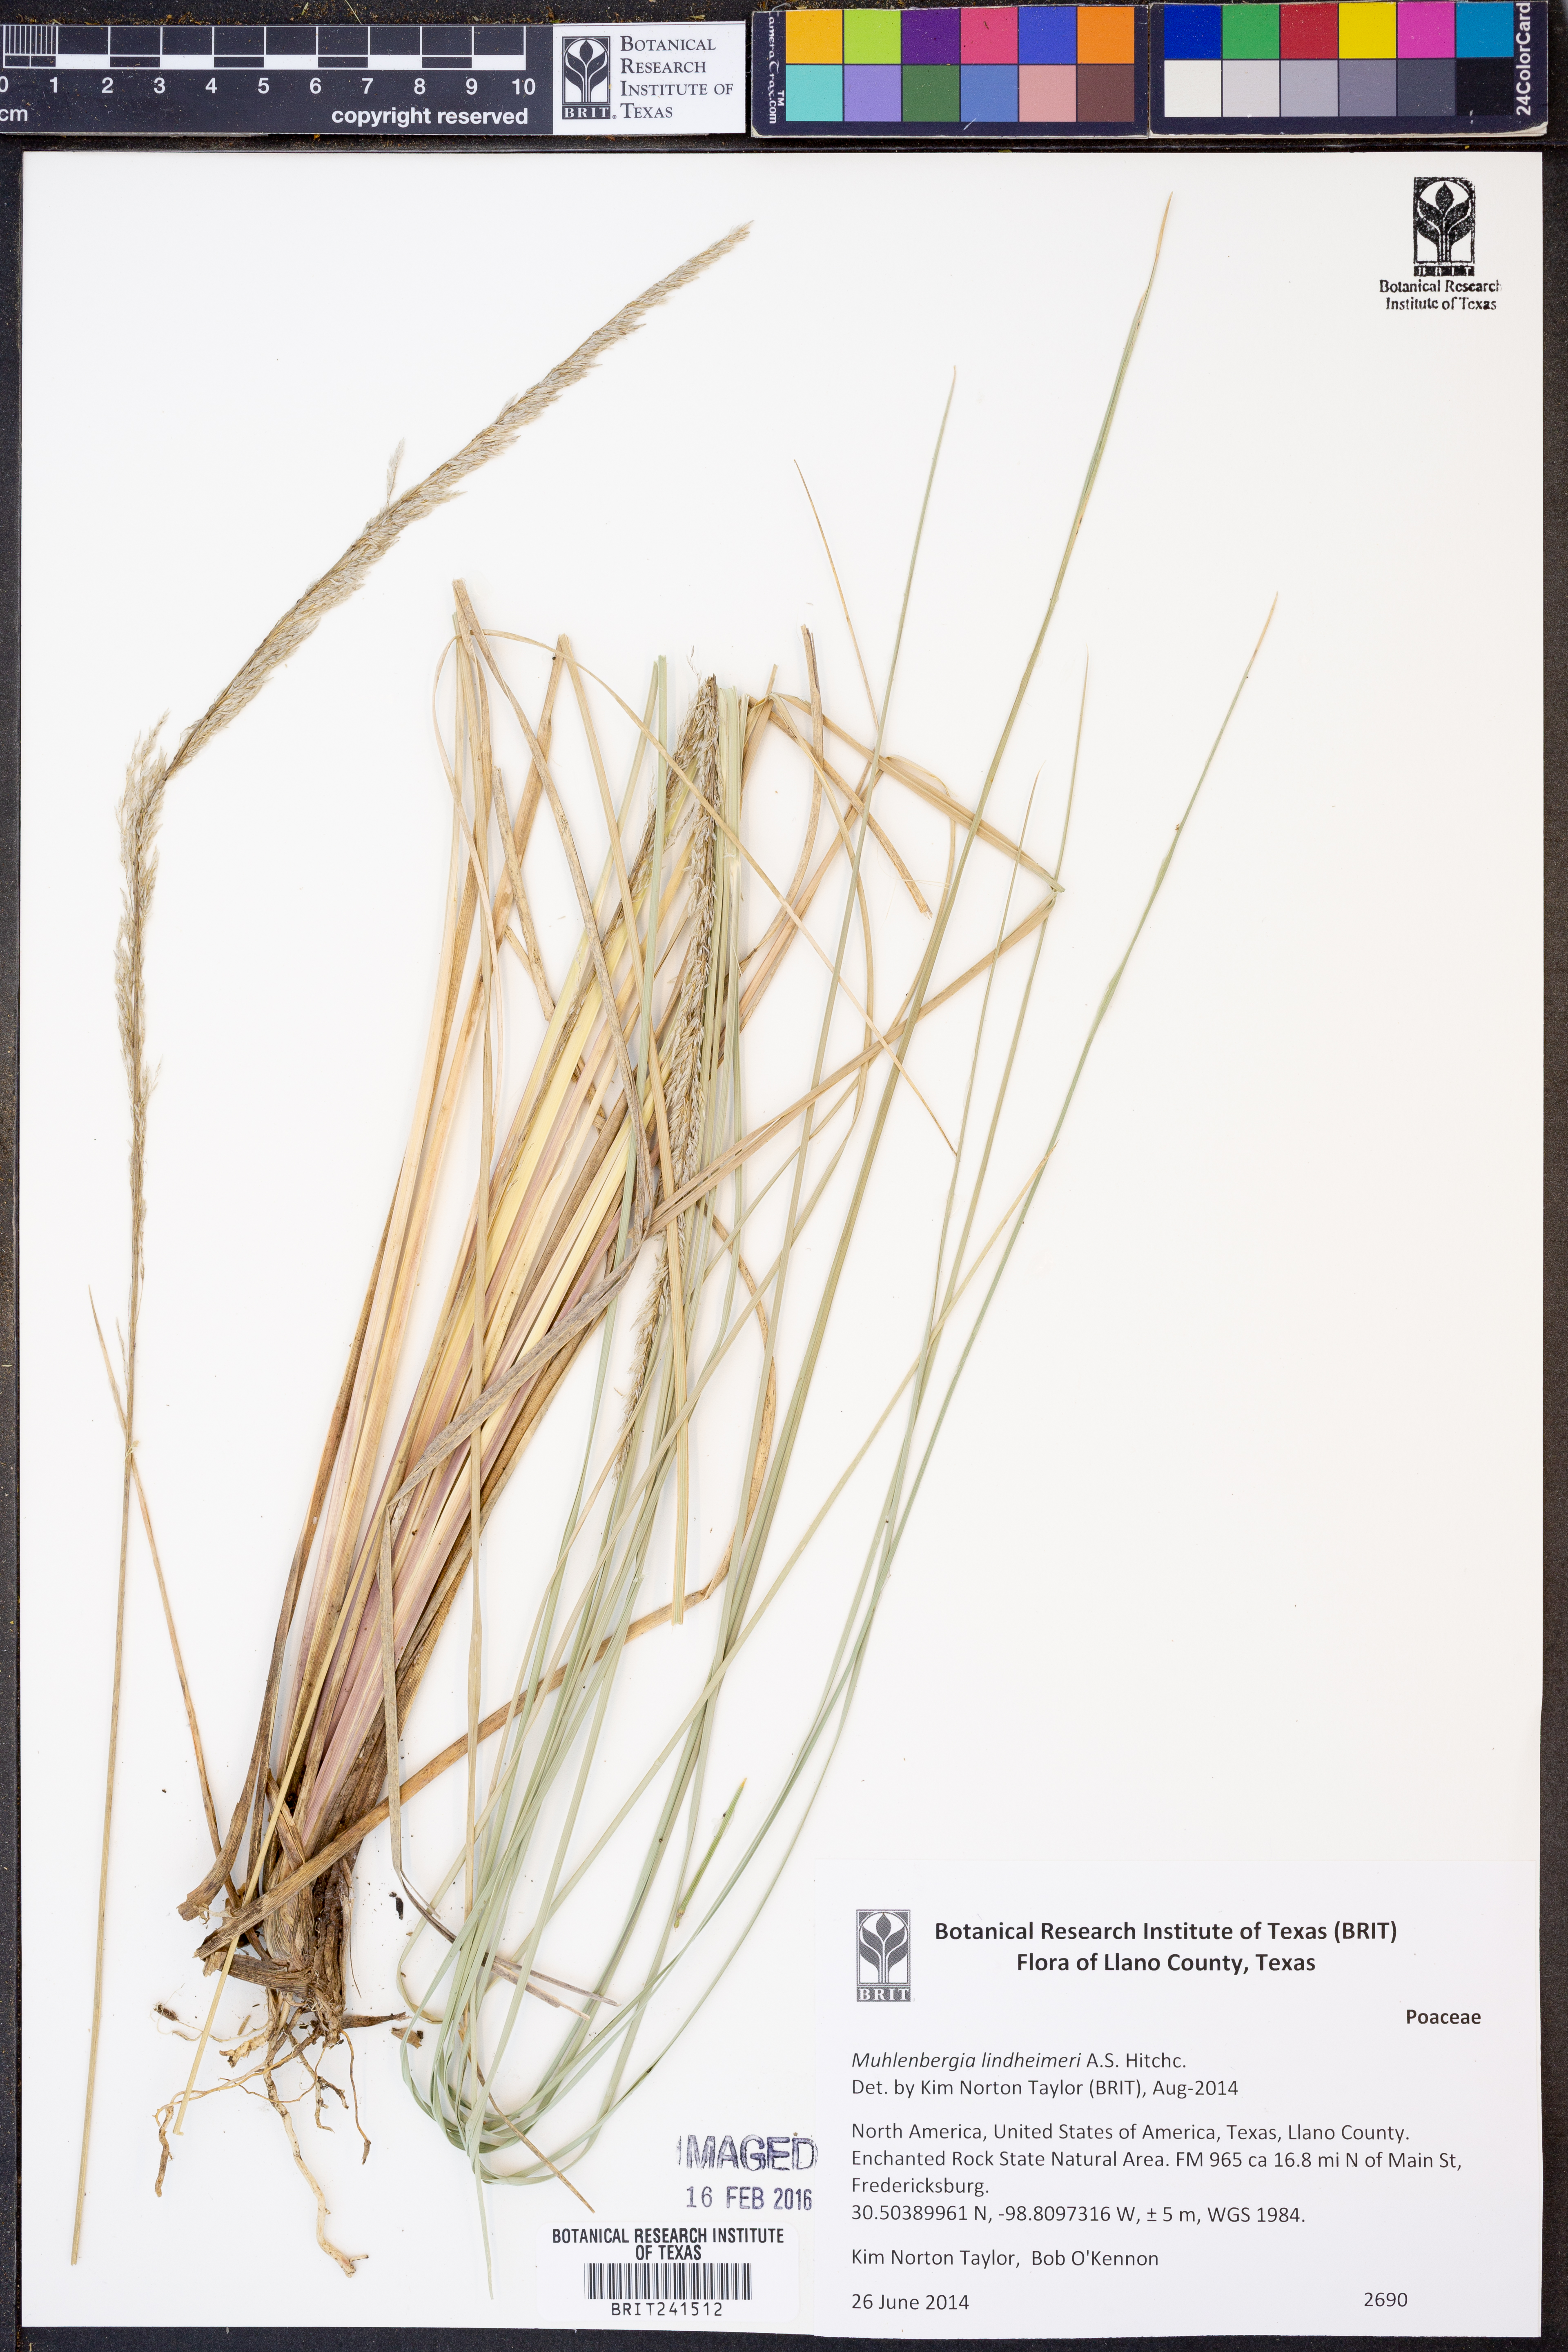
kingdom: Plantae
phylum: Tracheophyta
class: Liliopsida
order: Poales
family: Poaceae
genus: Muhlenbergia
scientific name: Muhlenbergia lindheimeri
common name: Lindheimer's muhly
